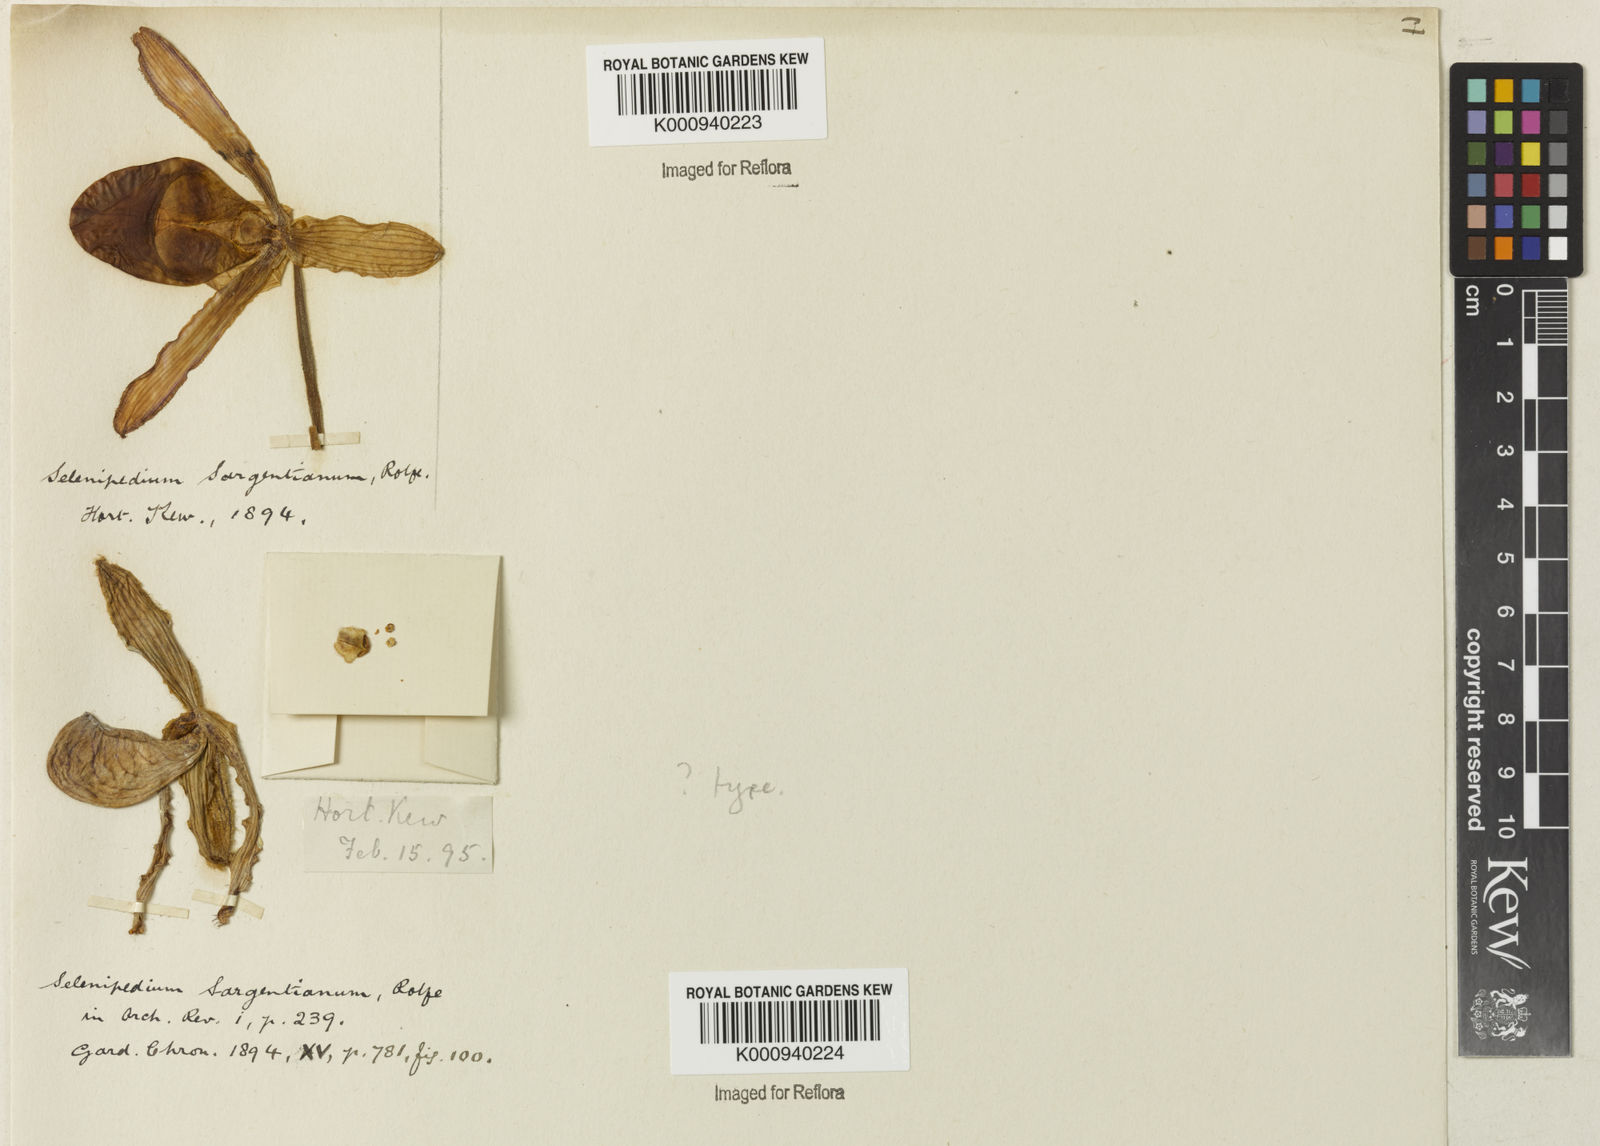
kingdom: Plantae
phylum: Tracheophyta
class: Liliopsida
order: Asparagales
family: Orchidaceae
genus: Phragmipedium
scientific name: Phragmipedium sargentianum
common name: Sargent's phragmipedium
